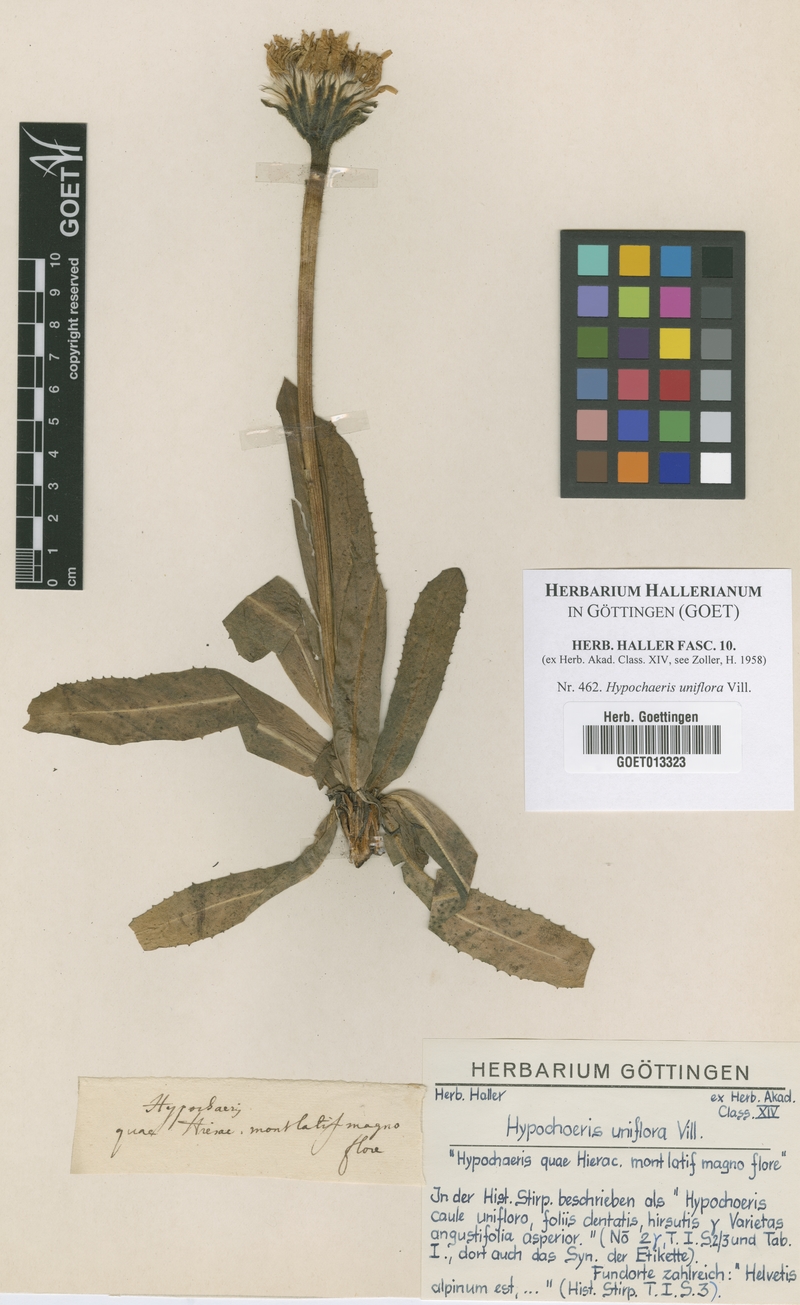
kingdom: Plantae
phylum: Tracheophyta
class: Magnoliopsida
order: Asterales
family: Asteraceae
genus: Trommsdorffia
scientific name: Trommsdorffia uniflora
